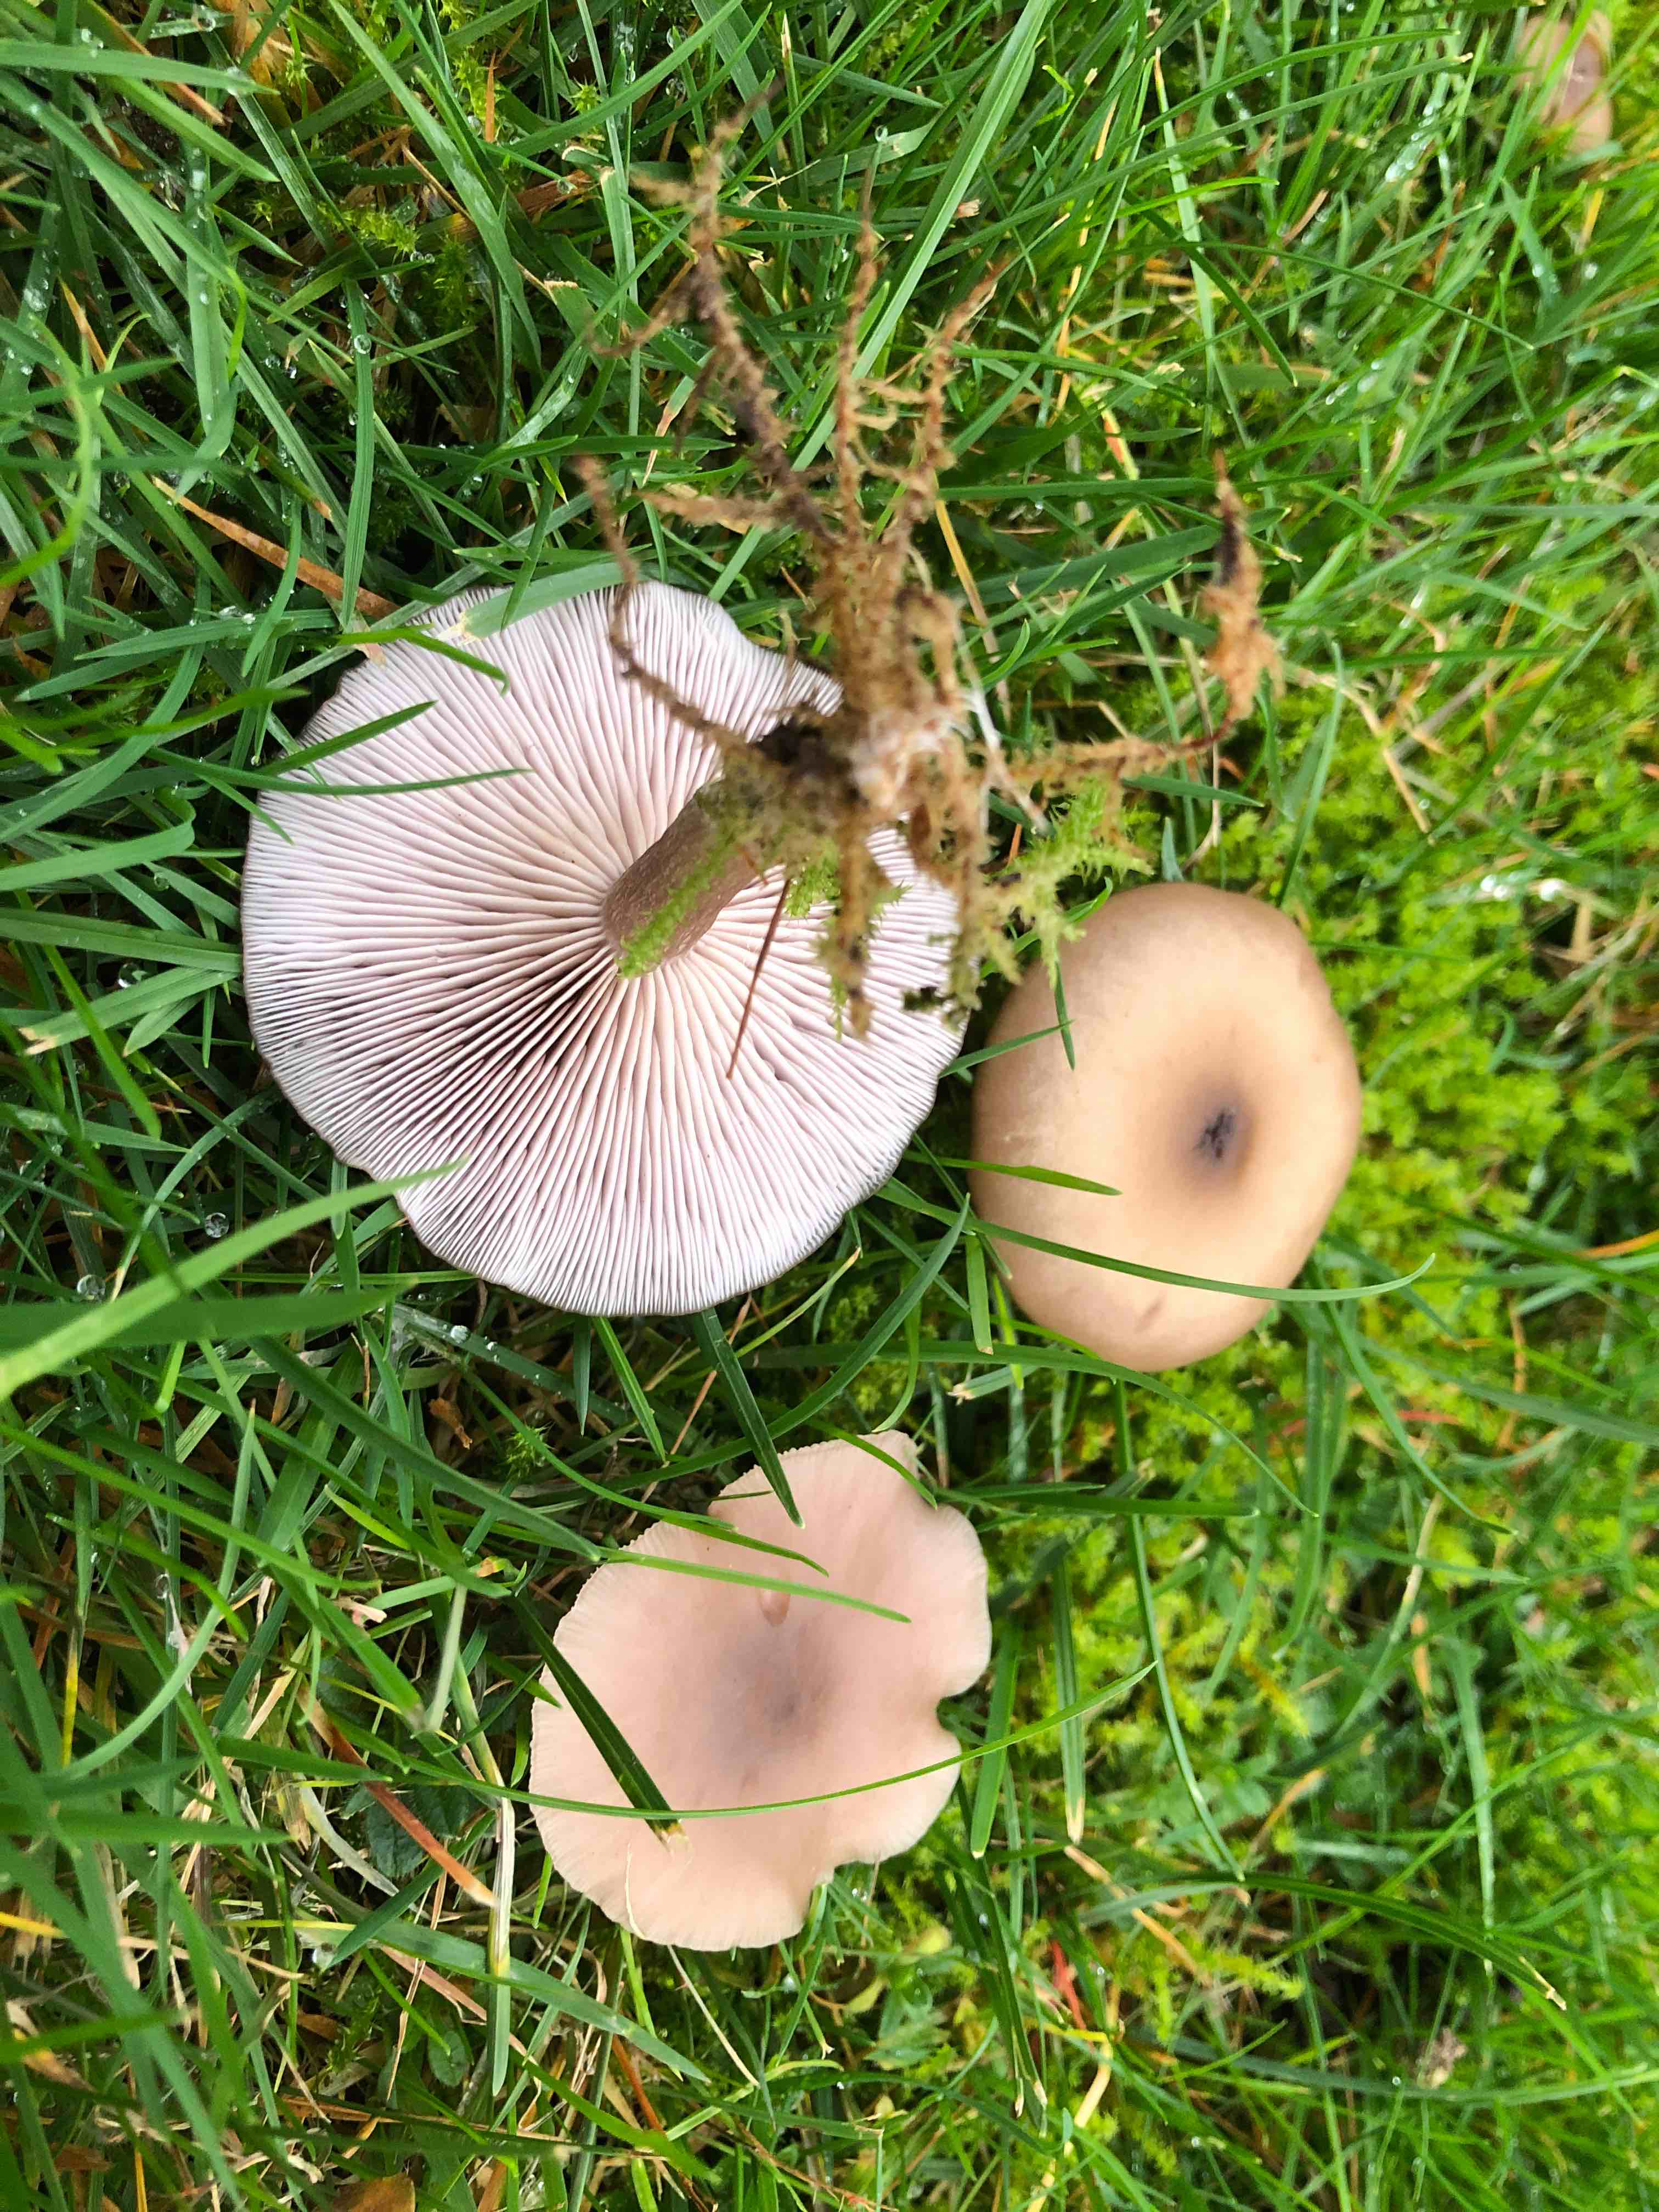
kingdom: Fungi
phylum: Basidiomycota
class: Agaricomycetes
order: Agaricales
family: Tricholomataceae
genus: Lepista
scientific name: Lepista sordida
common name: spinkel hekseringshat
